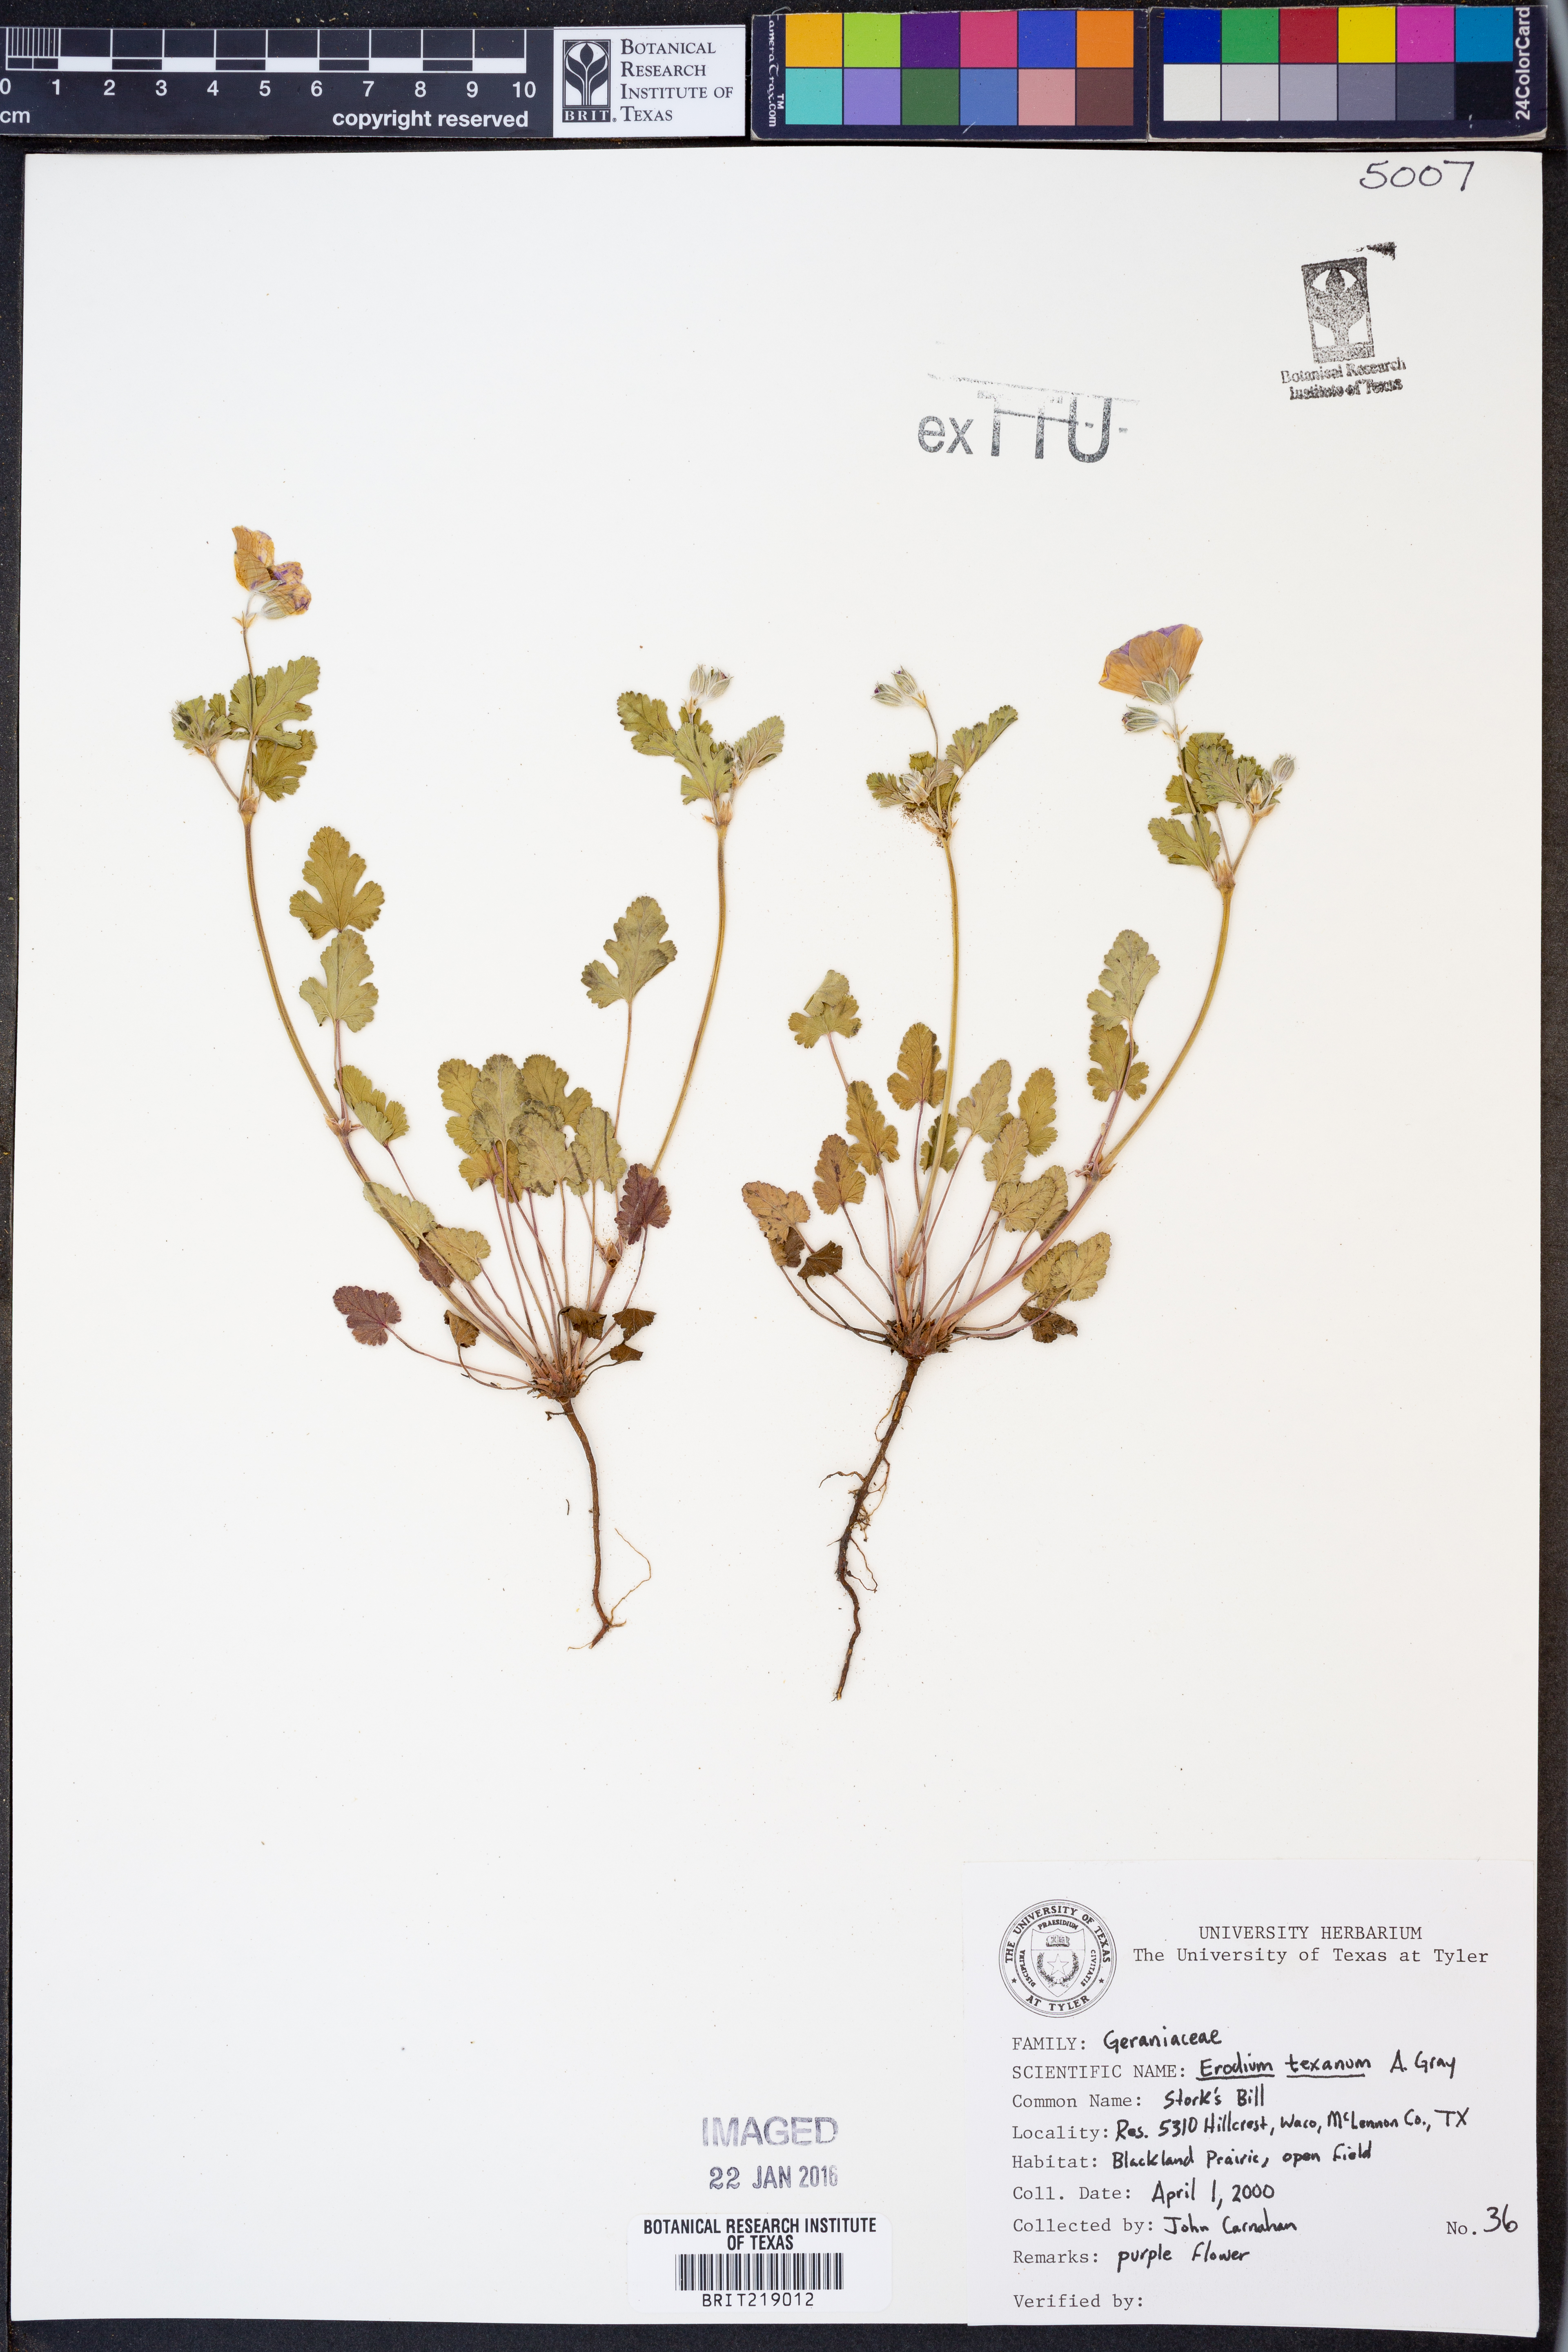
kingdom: Plantae
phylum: Tracheophyta
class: Magnoliopsida
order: Geraniales
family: Geraniaceae
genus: Erodium
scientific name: Erodium texanum
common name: Texas stork's-bill
